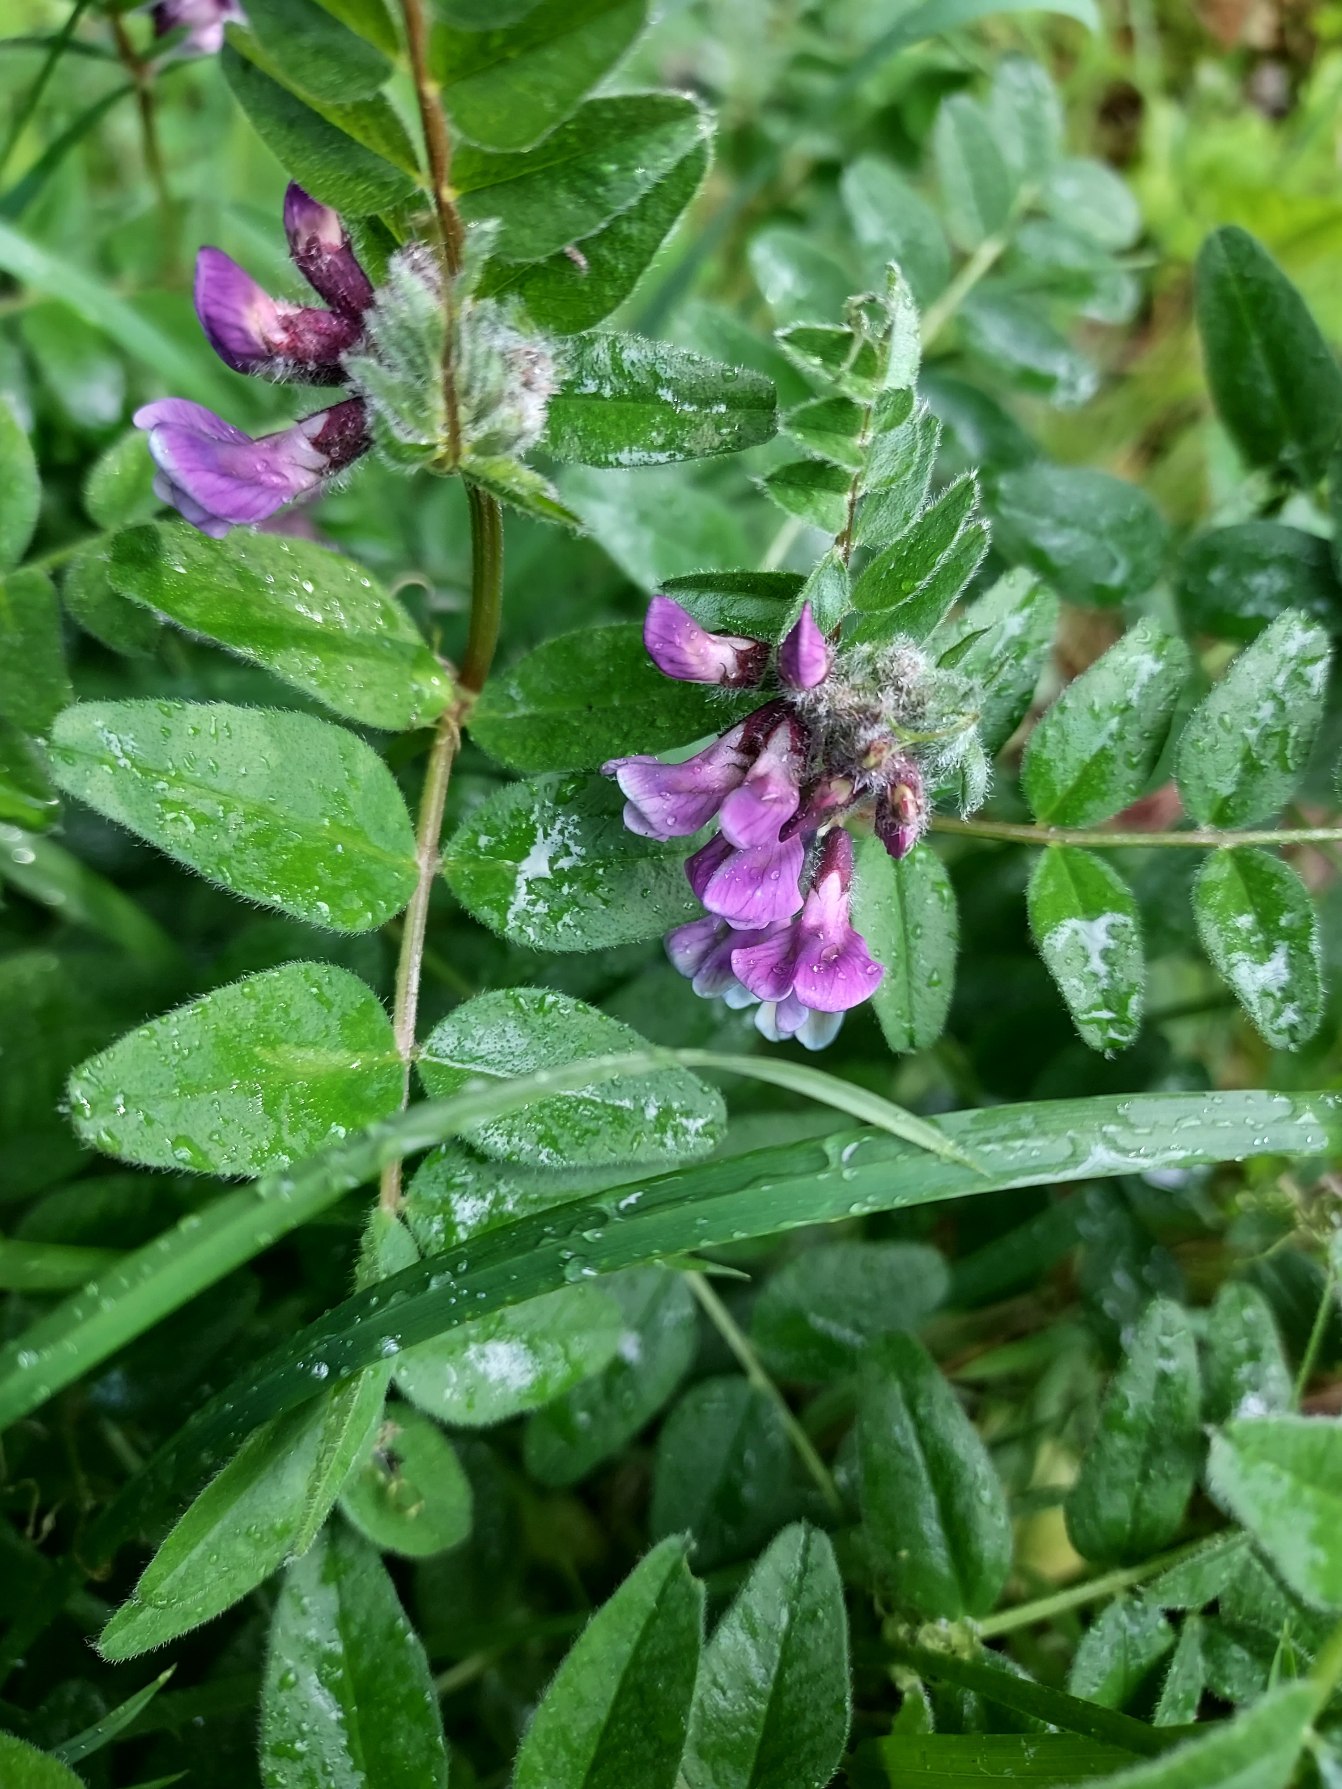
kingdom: Plantae
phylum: Tracheophyta
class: Magnoliopsida
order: Fabales
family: Fabaceae
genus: Vicia
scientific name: Vicia sepium
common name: Gærde-vikke
